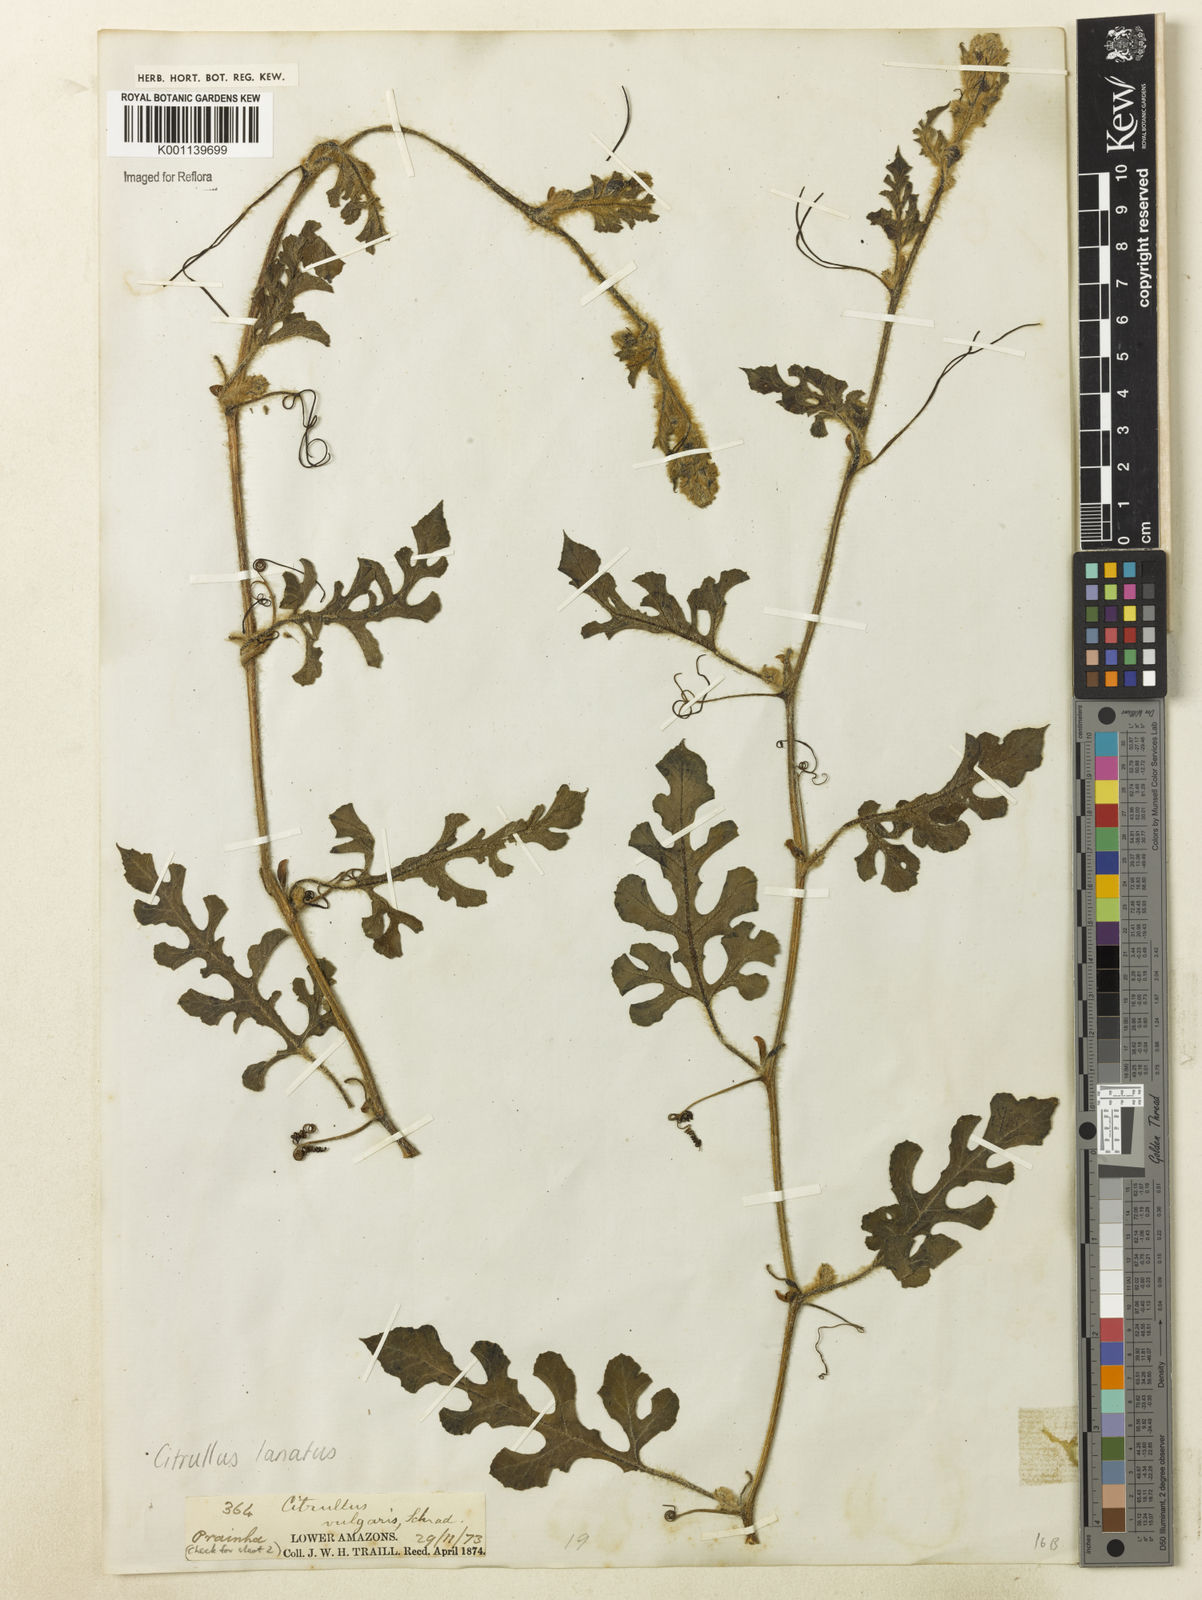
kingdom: Plantae
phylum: Tracheophyta
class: Magnoliopsida
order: Cucurbitales
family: Cucurbitaceae
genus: Citrullus
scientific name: Citrullus lanatus
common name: Watermelon
